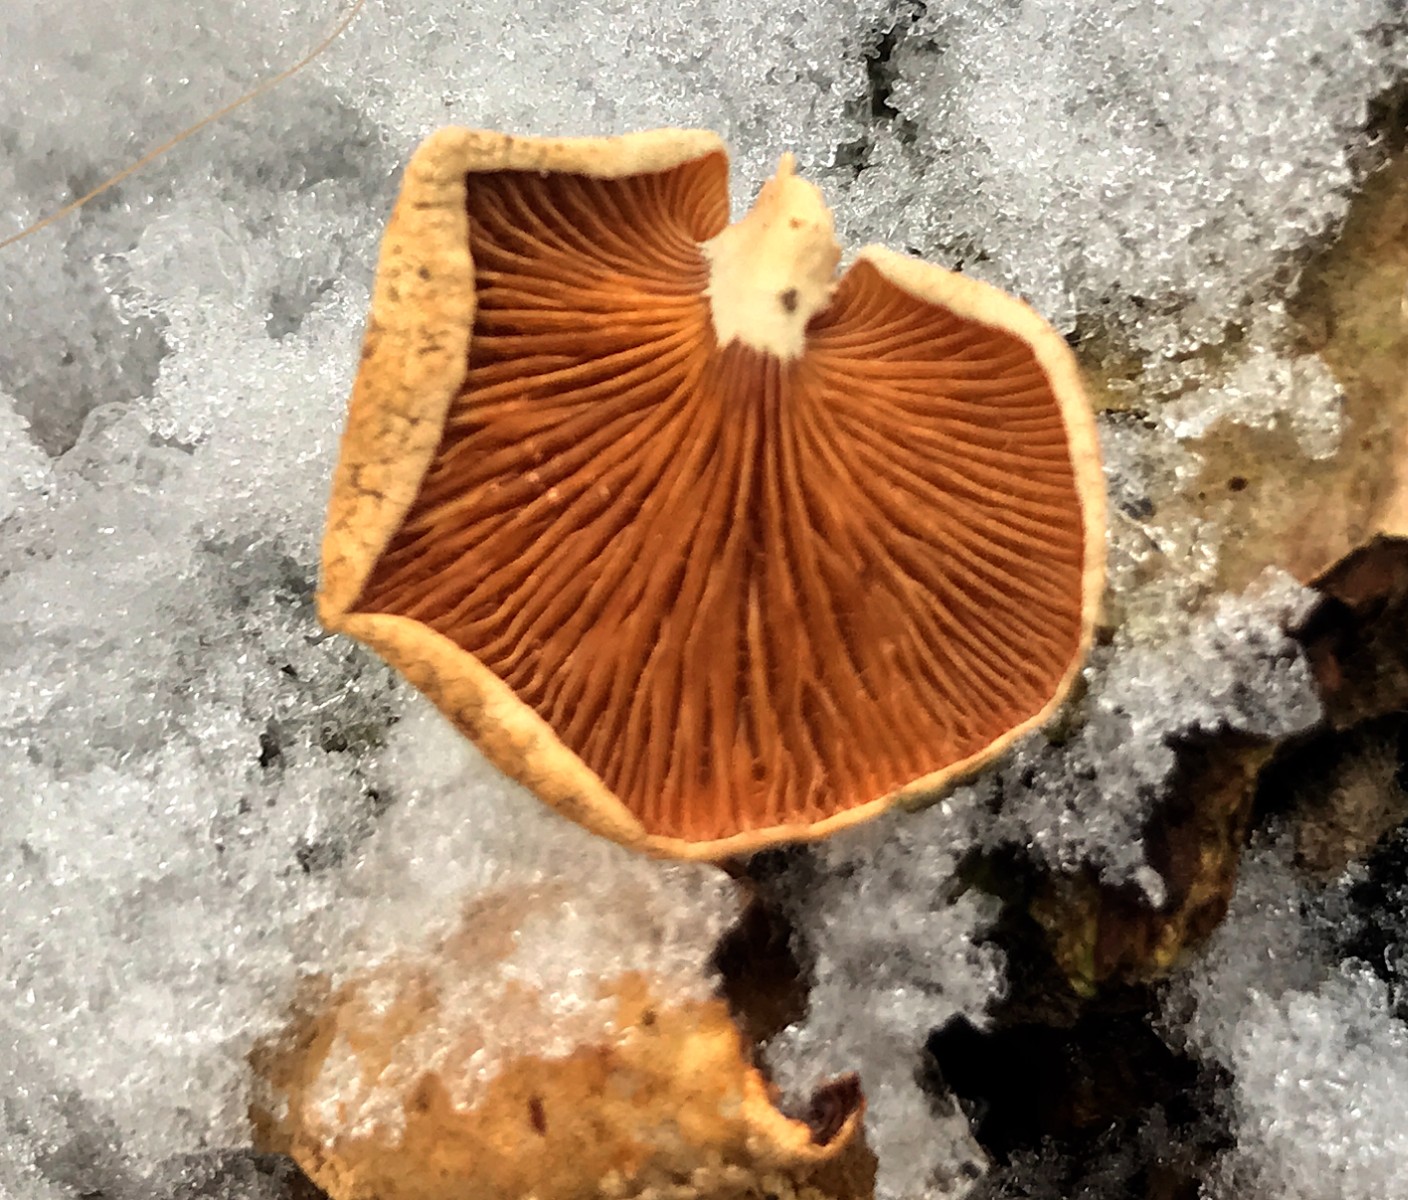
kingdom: Fungi
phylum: Basidiomycota
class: Agaricomycetes
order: Agaricales
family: Mycenaceae
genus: Panellus
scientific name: Panellus stipticus
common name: kliddet epaulethat
